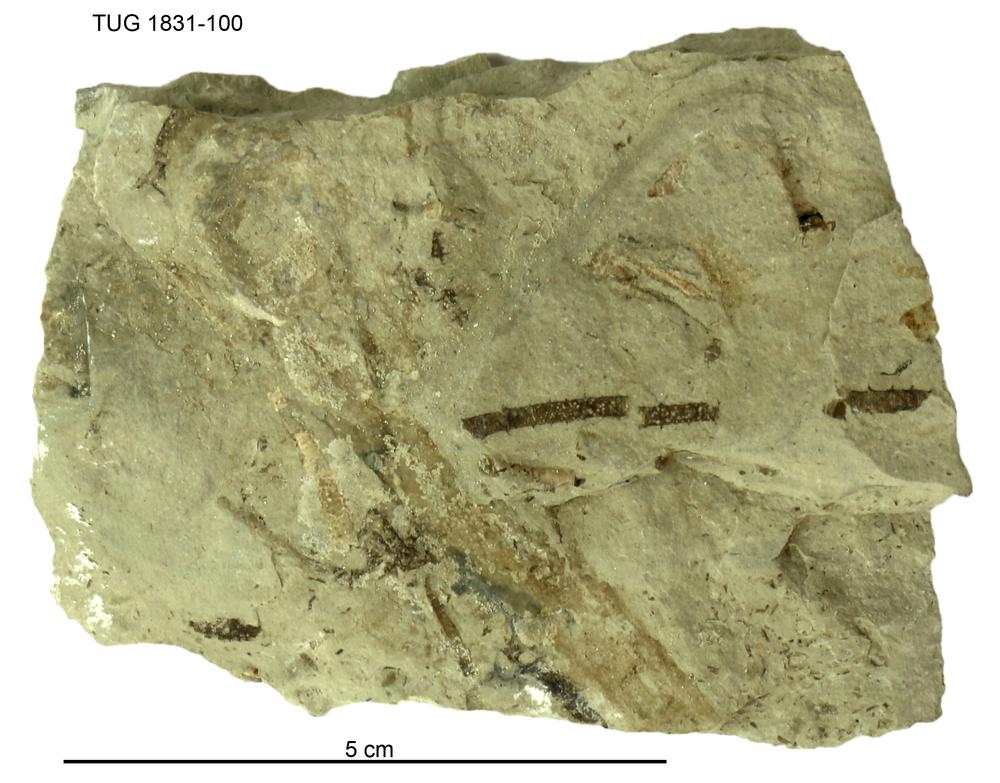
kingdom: Animalia
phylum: Echinodermata
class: Crinoidea
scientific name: Crinoidea
